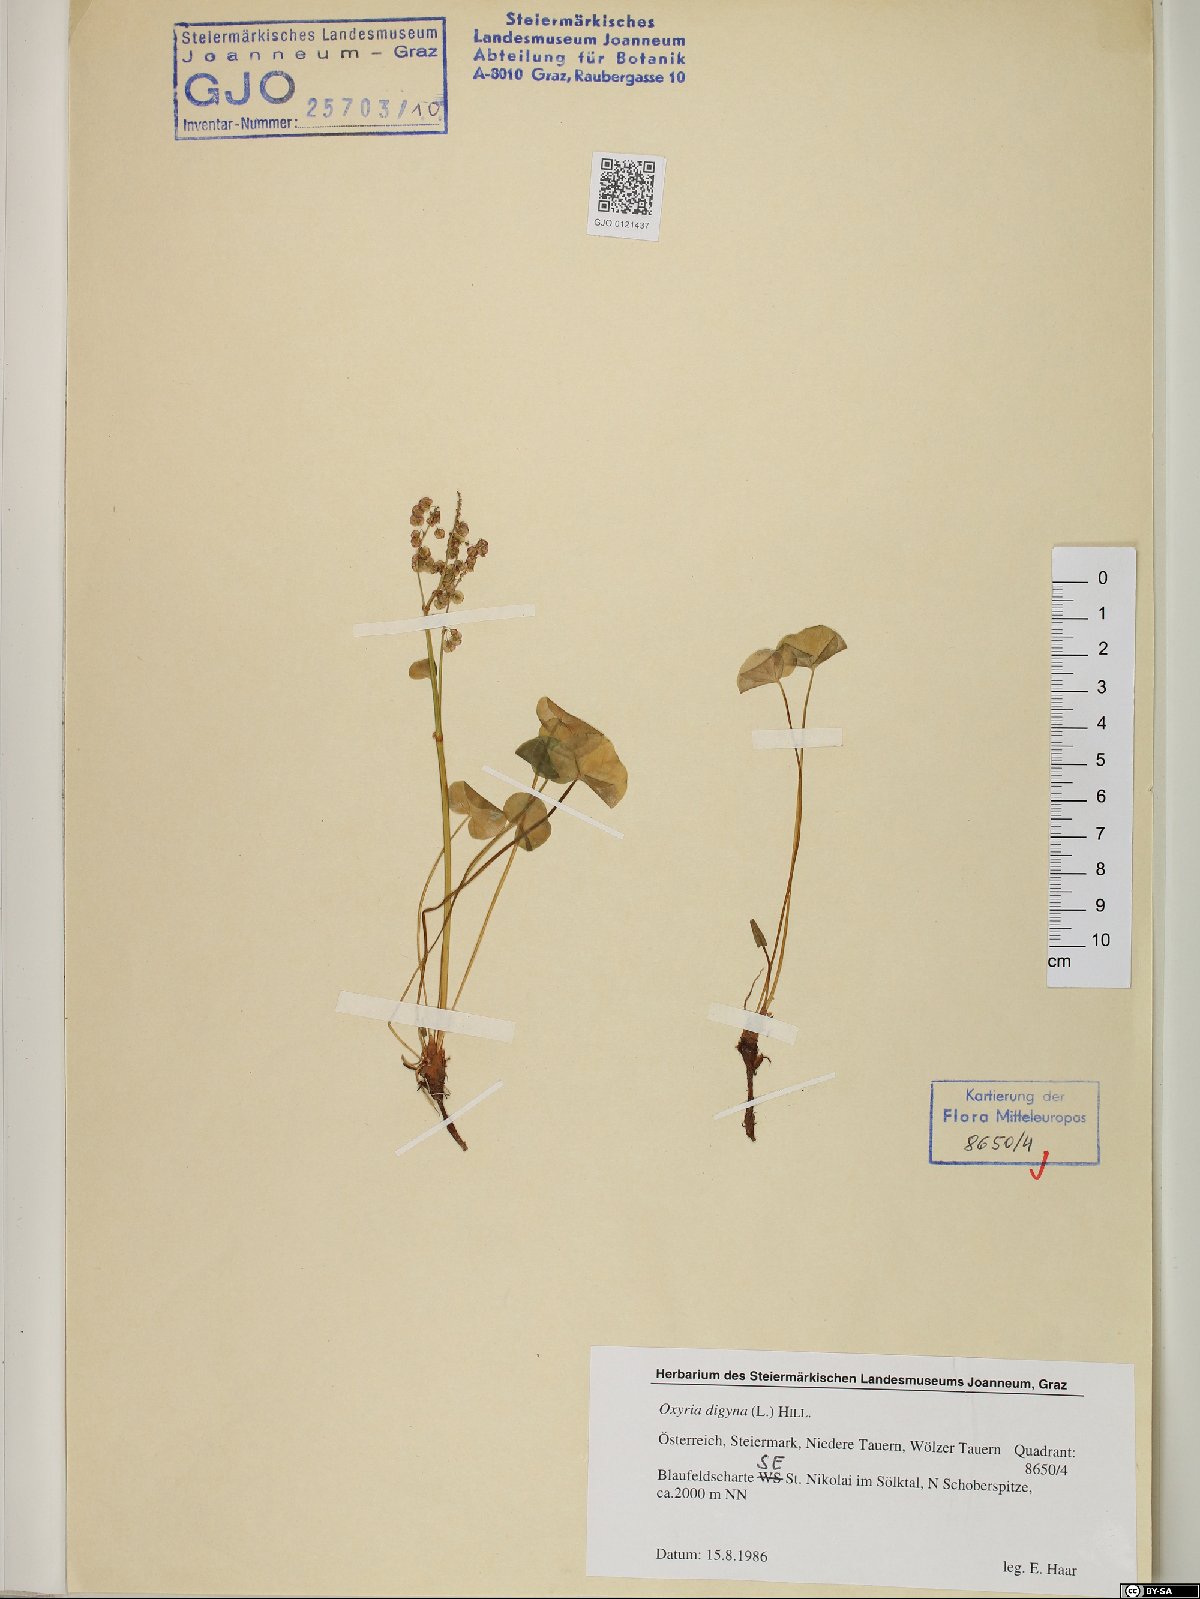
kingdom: Plantae
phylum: Tracheophyta
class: Magnoliopsida
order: Caryophyllales
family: Polygonaceae
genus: Oxyria
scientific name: Oxyria digyna
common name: Alpine mountain-sorrel
